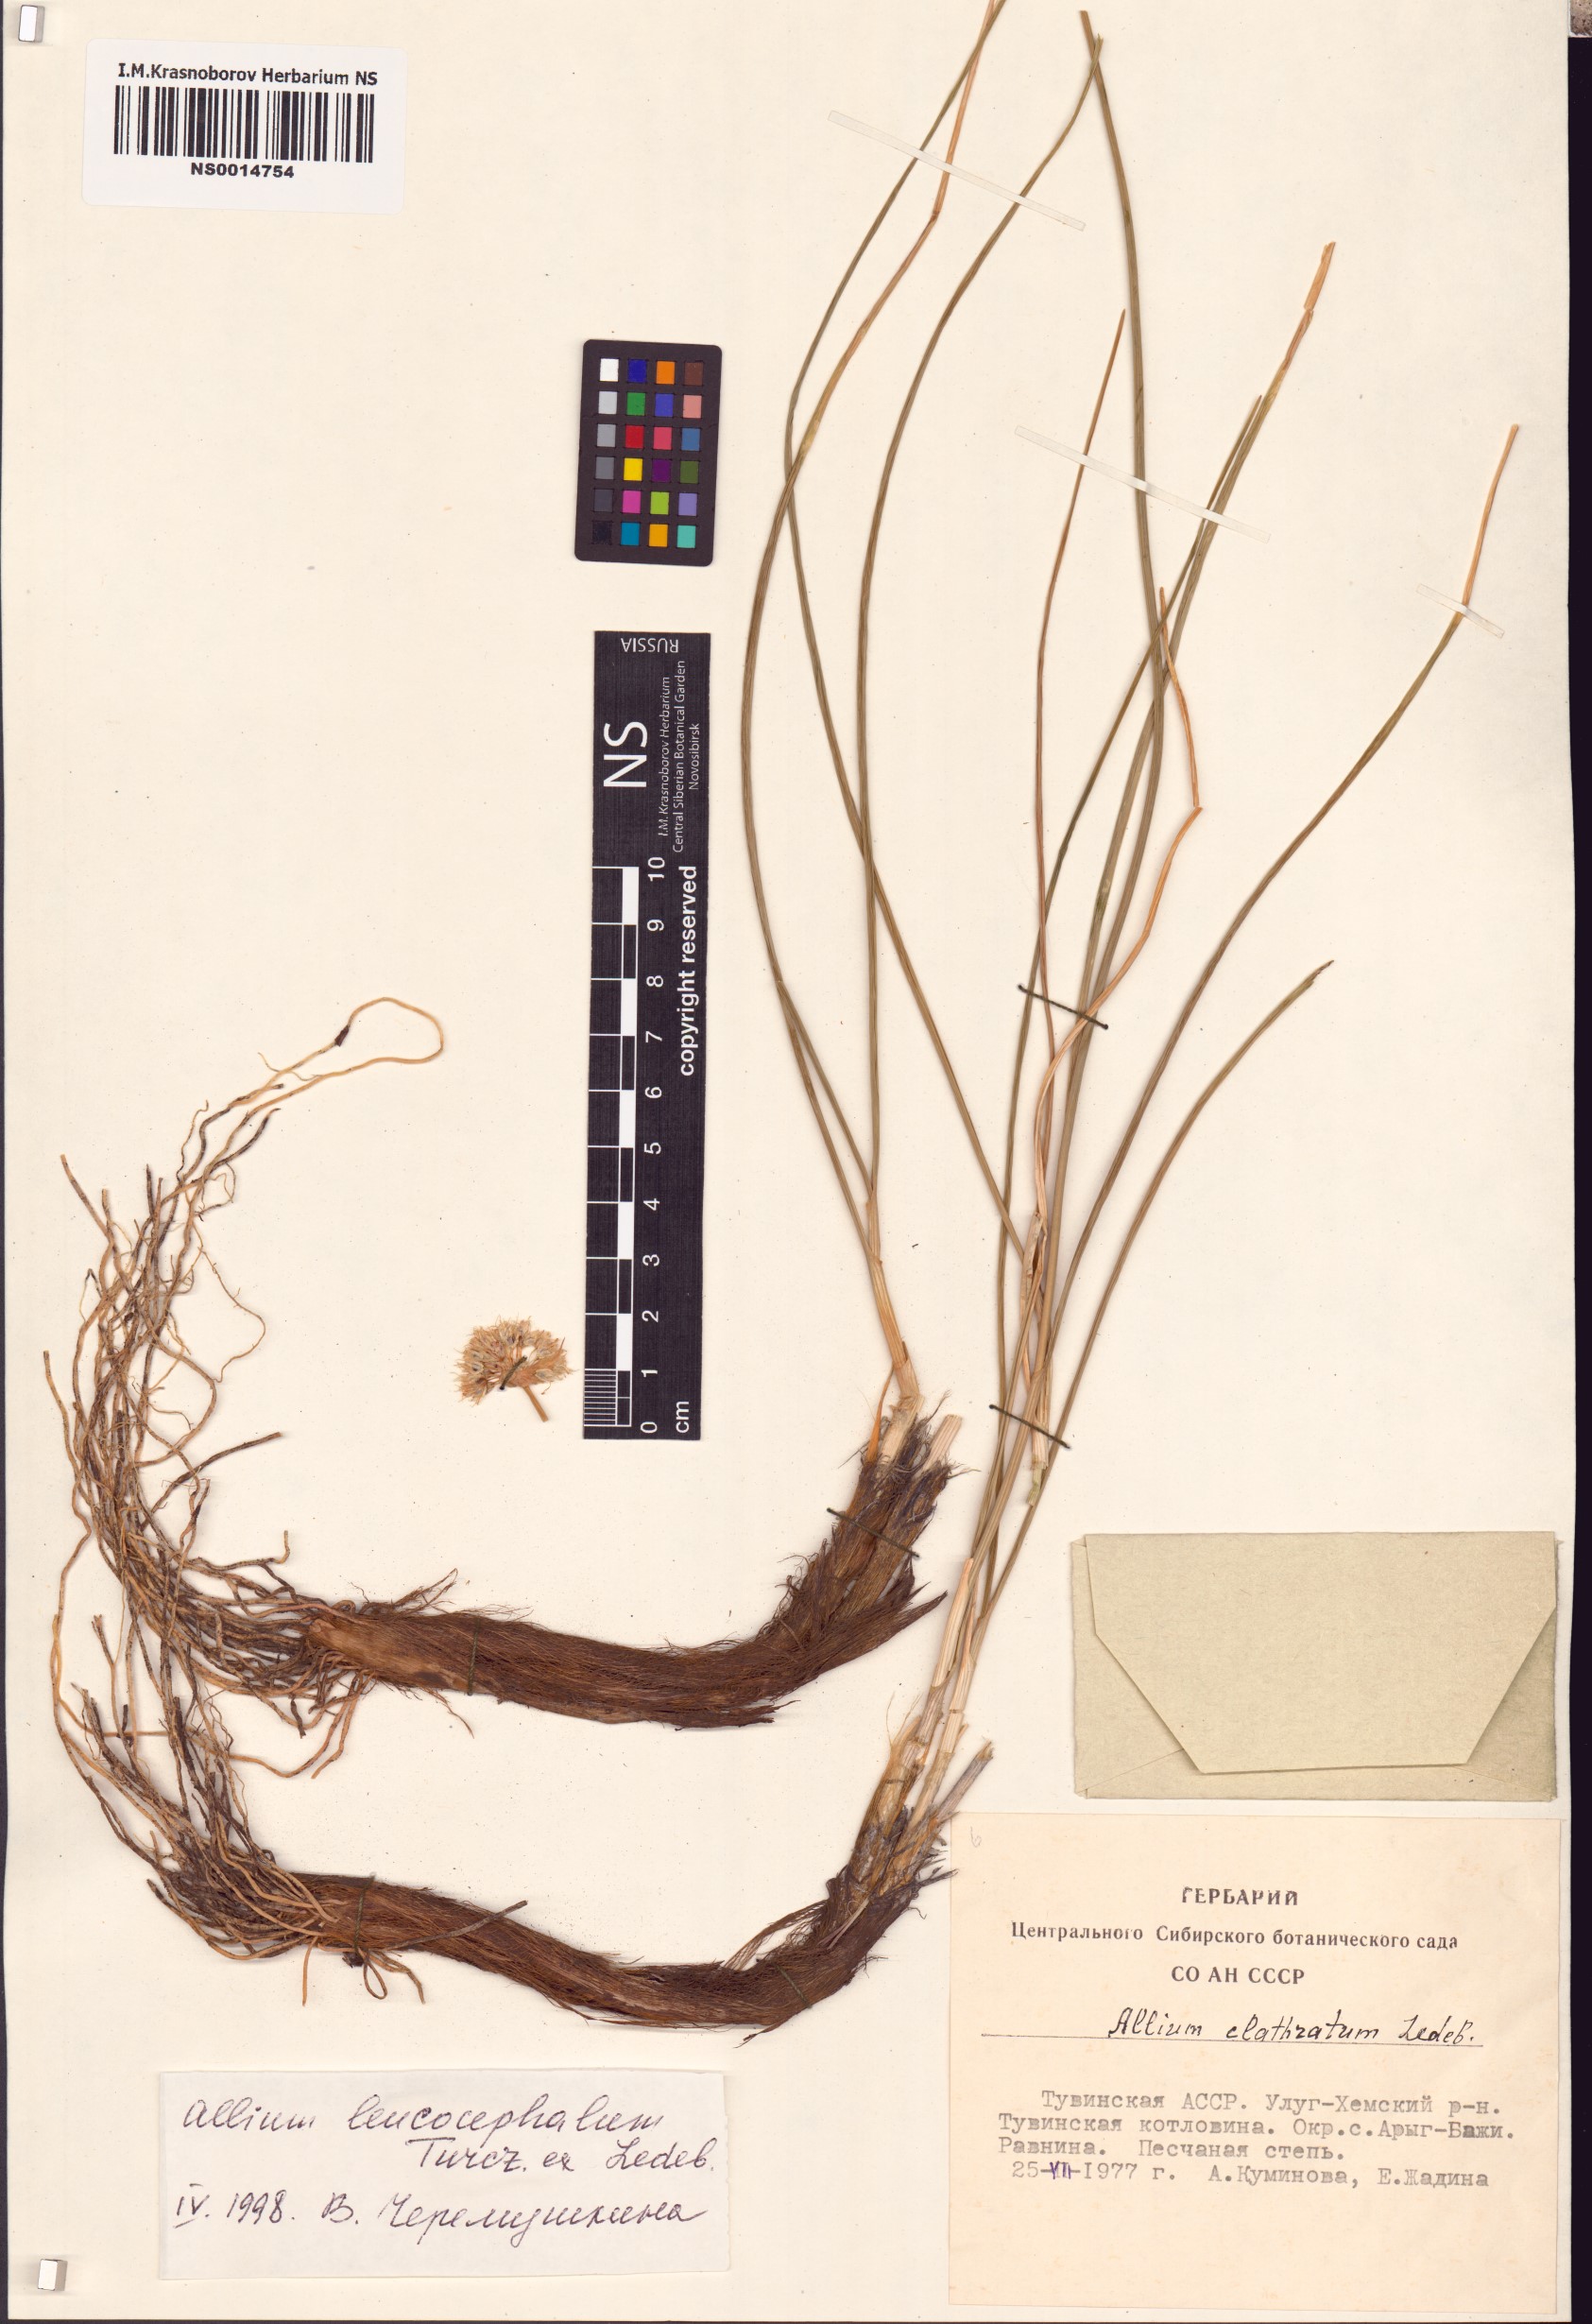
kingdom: Plantae
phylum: Tracheophyta
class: Liliopsida
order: Asparagales
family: Amaryllidaceae
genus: Allium
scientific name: Allium leucocephalum
